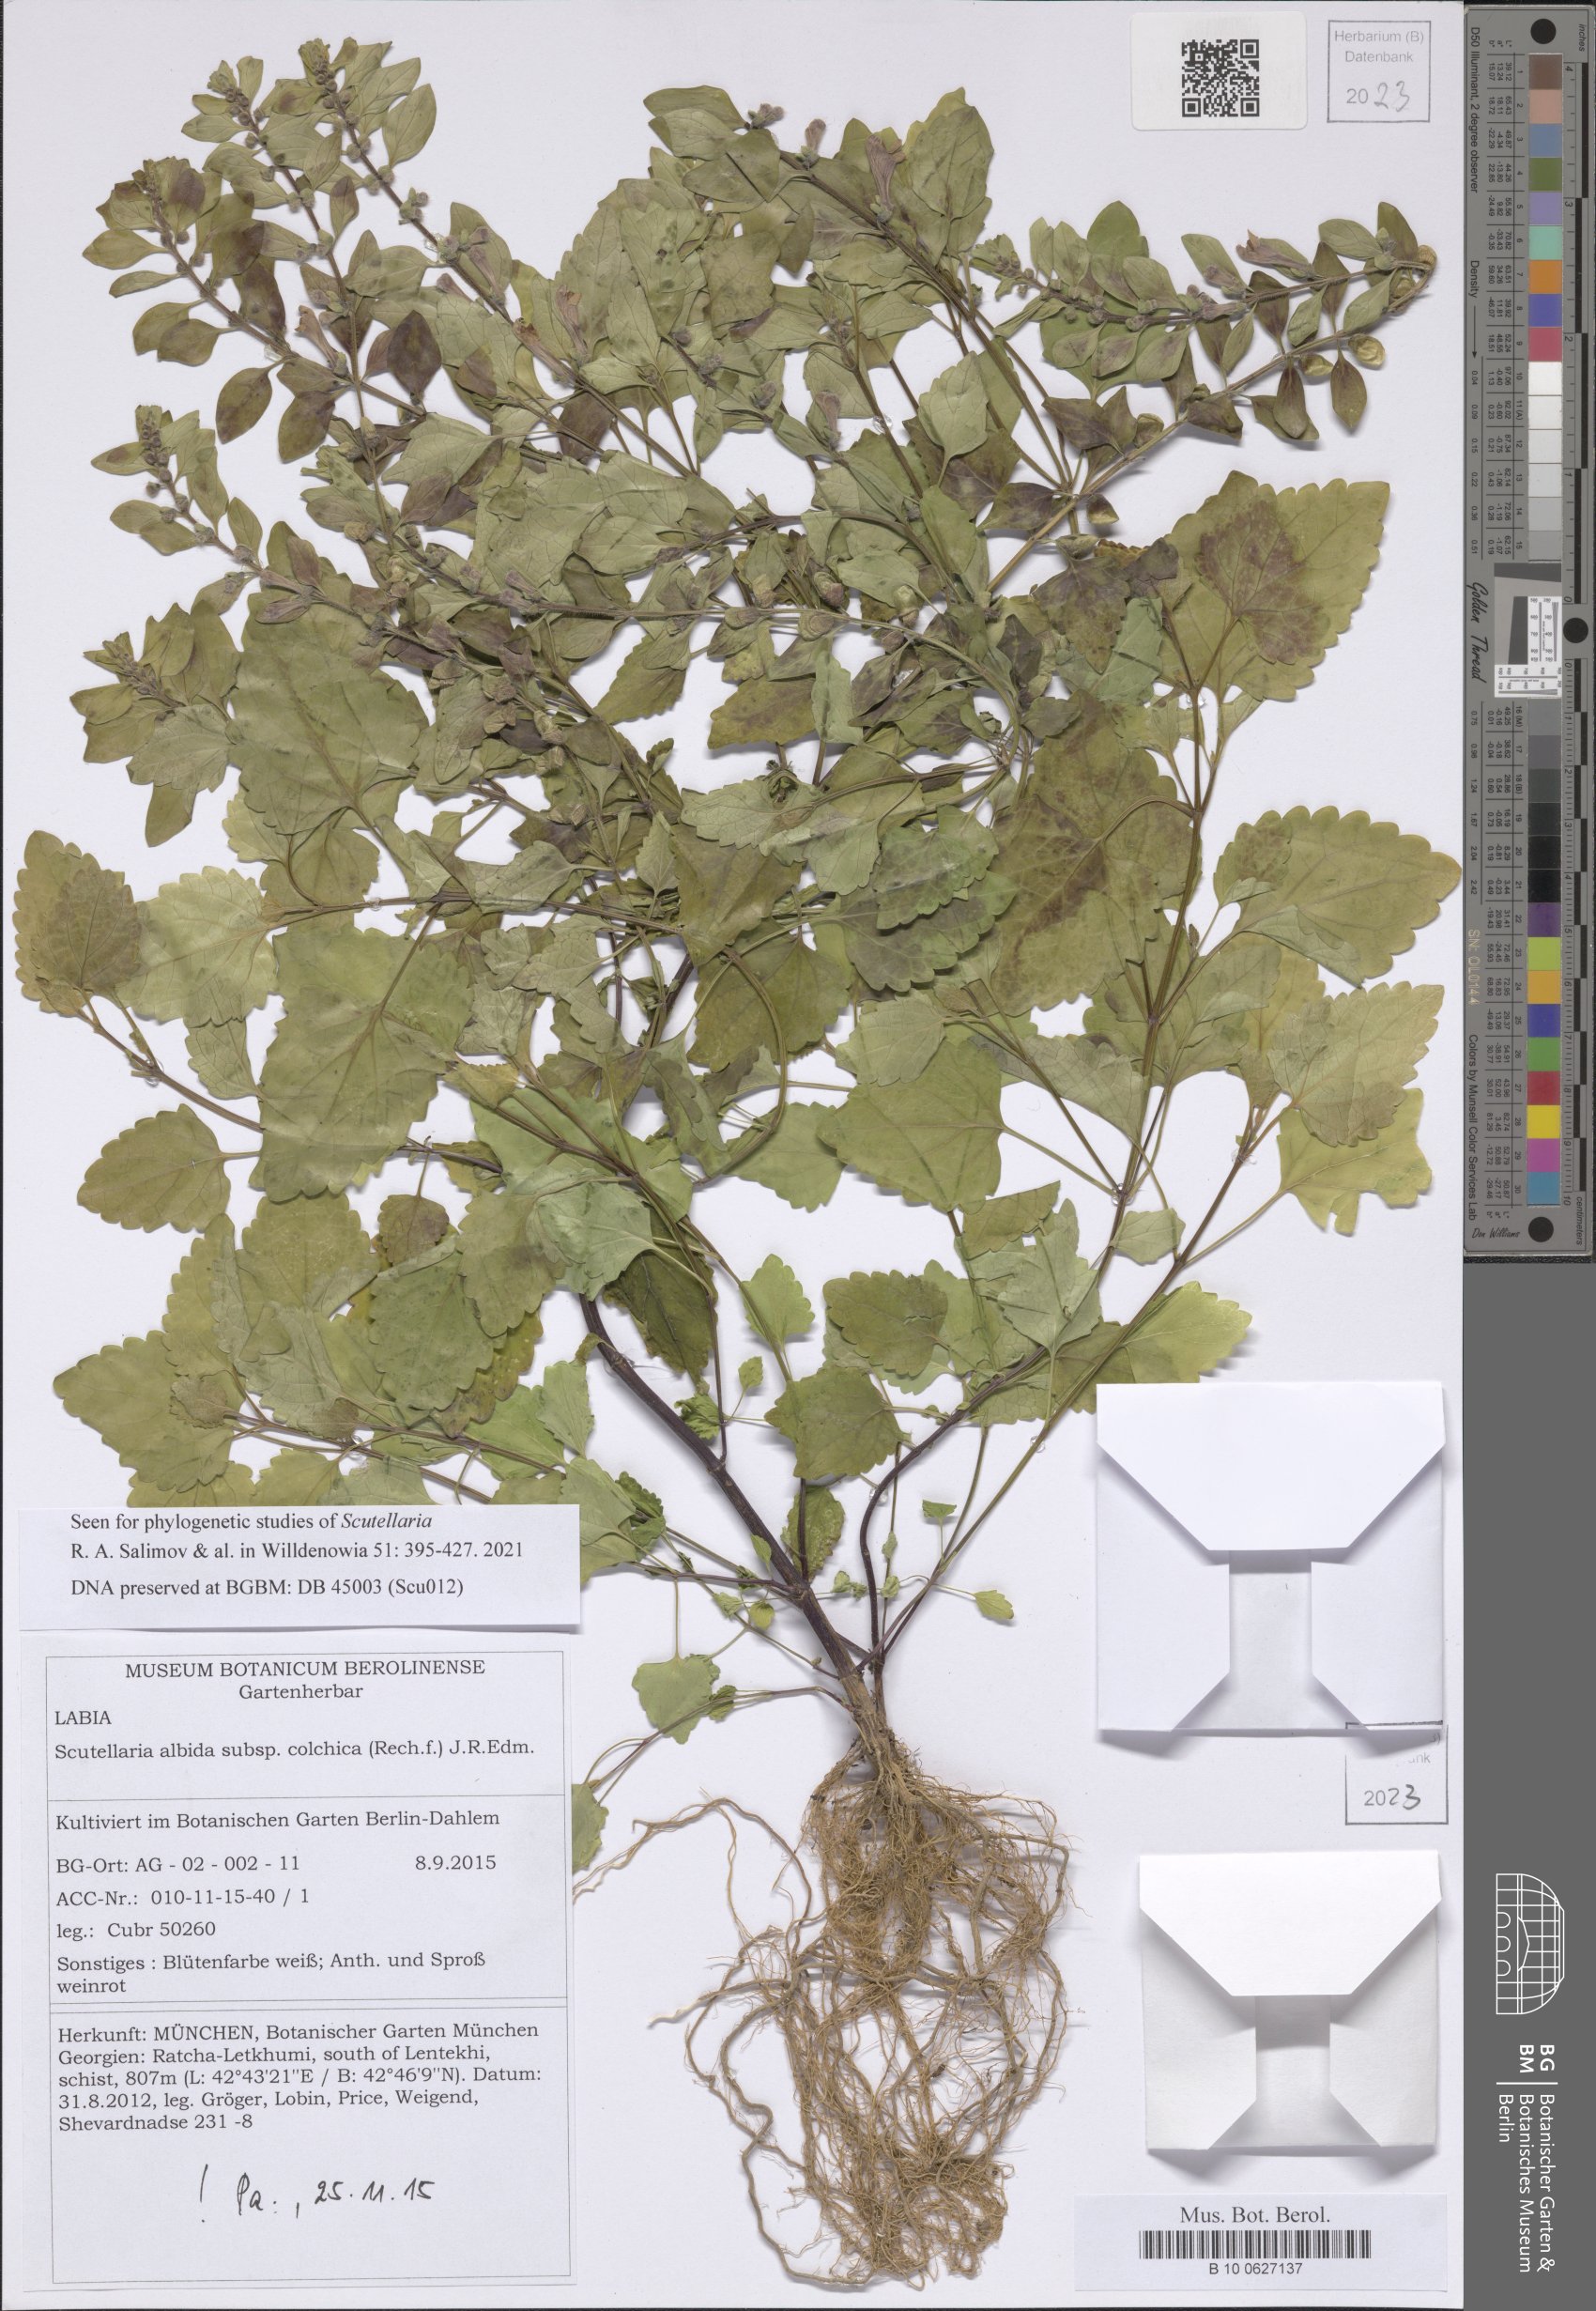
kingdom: Plantae
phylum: Tracheophyta
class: Magnoliopsida
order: Lamiales
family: Lamiaceae
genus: Scutellaria
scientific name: Scutellaria albida
